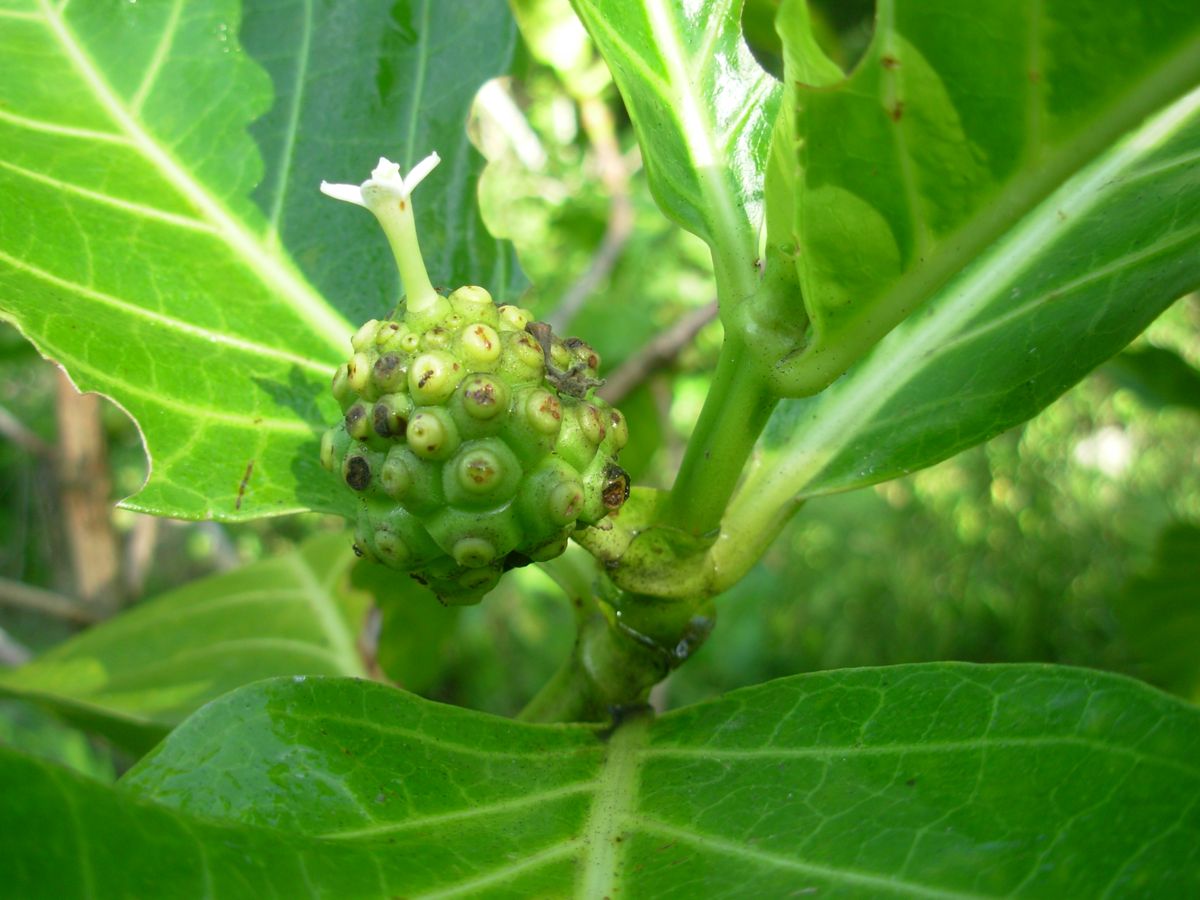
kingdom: Plantae
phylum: Tracheophyta
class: Magnoliopsida
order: Gentianales
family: Rubiaceae
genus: Morinda
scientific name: Morinda citrifolia
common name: Indian-mulberry
